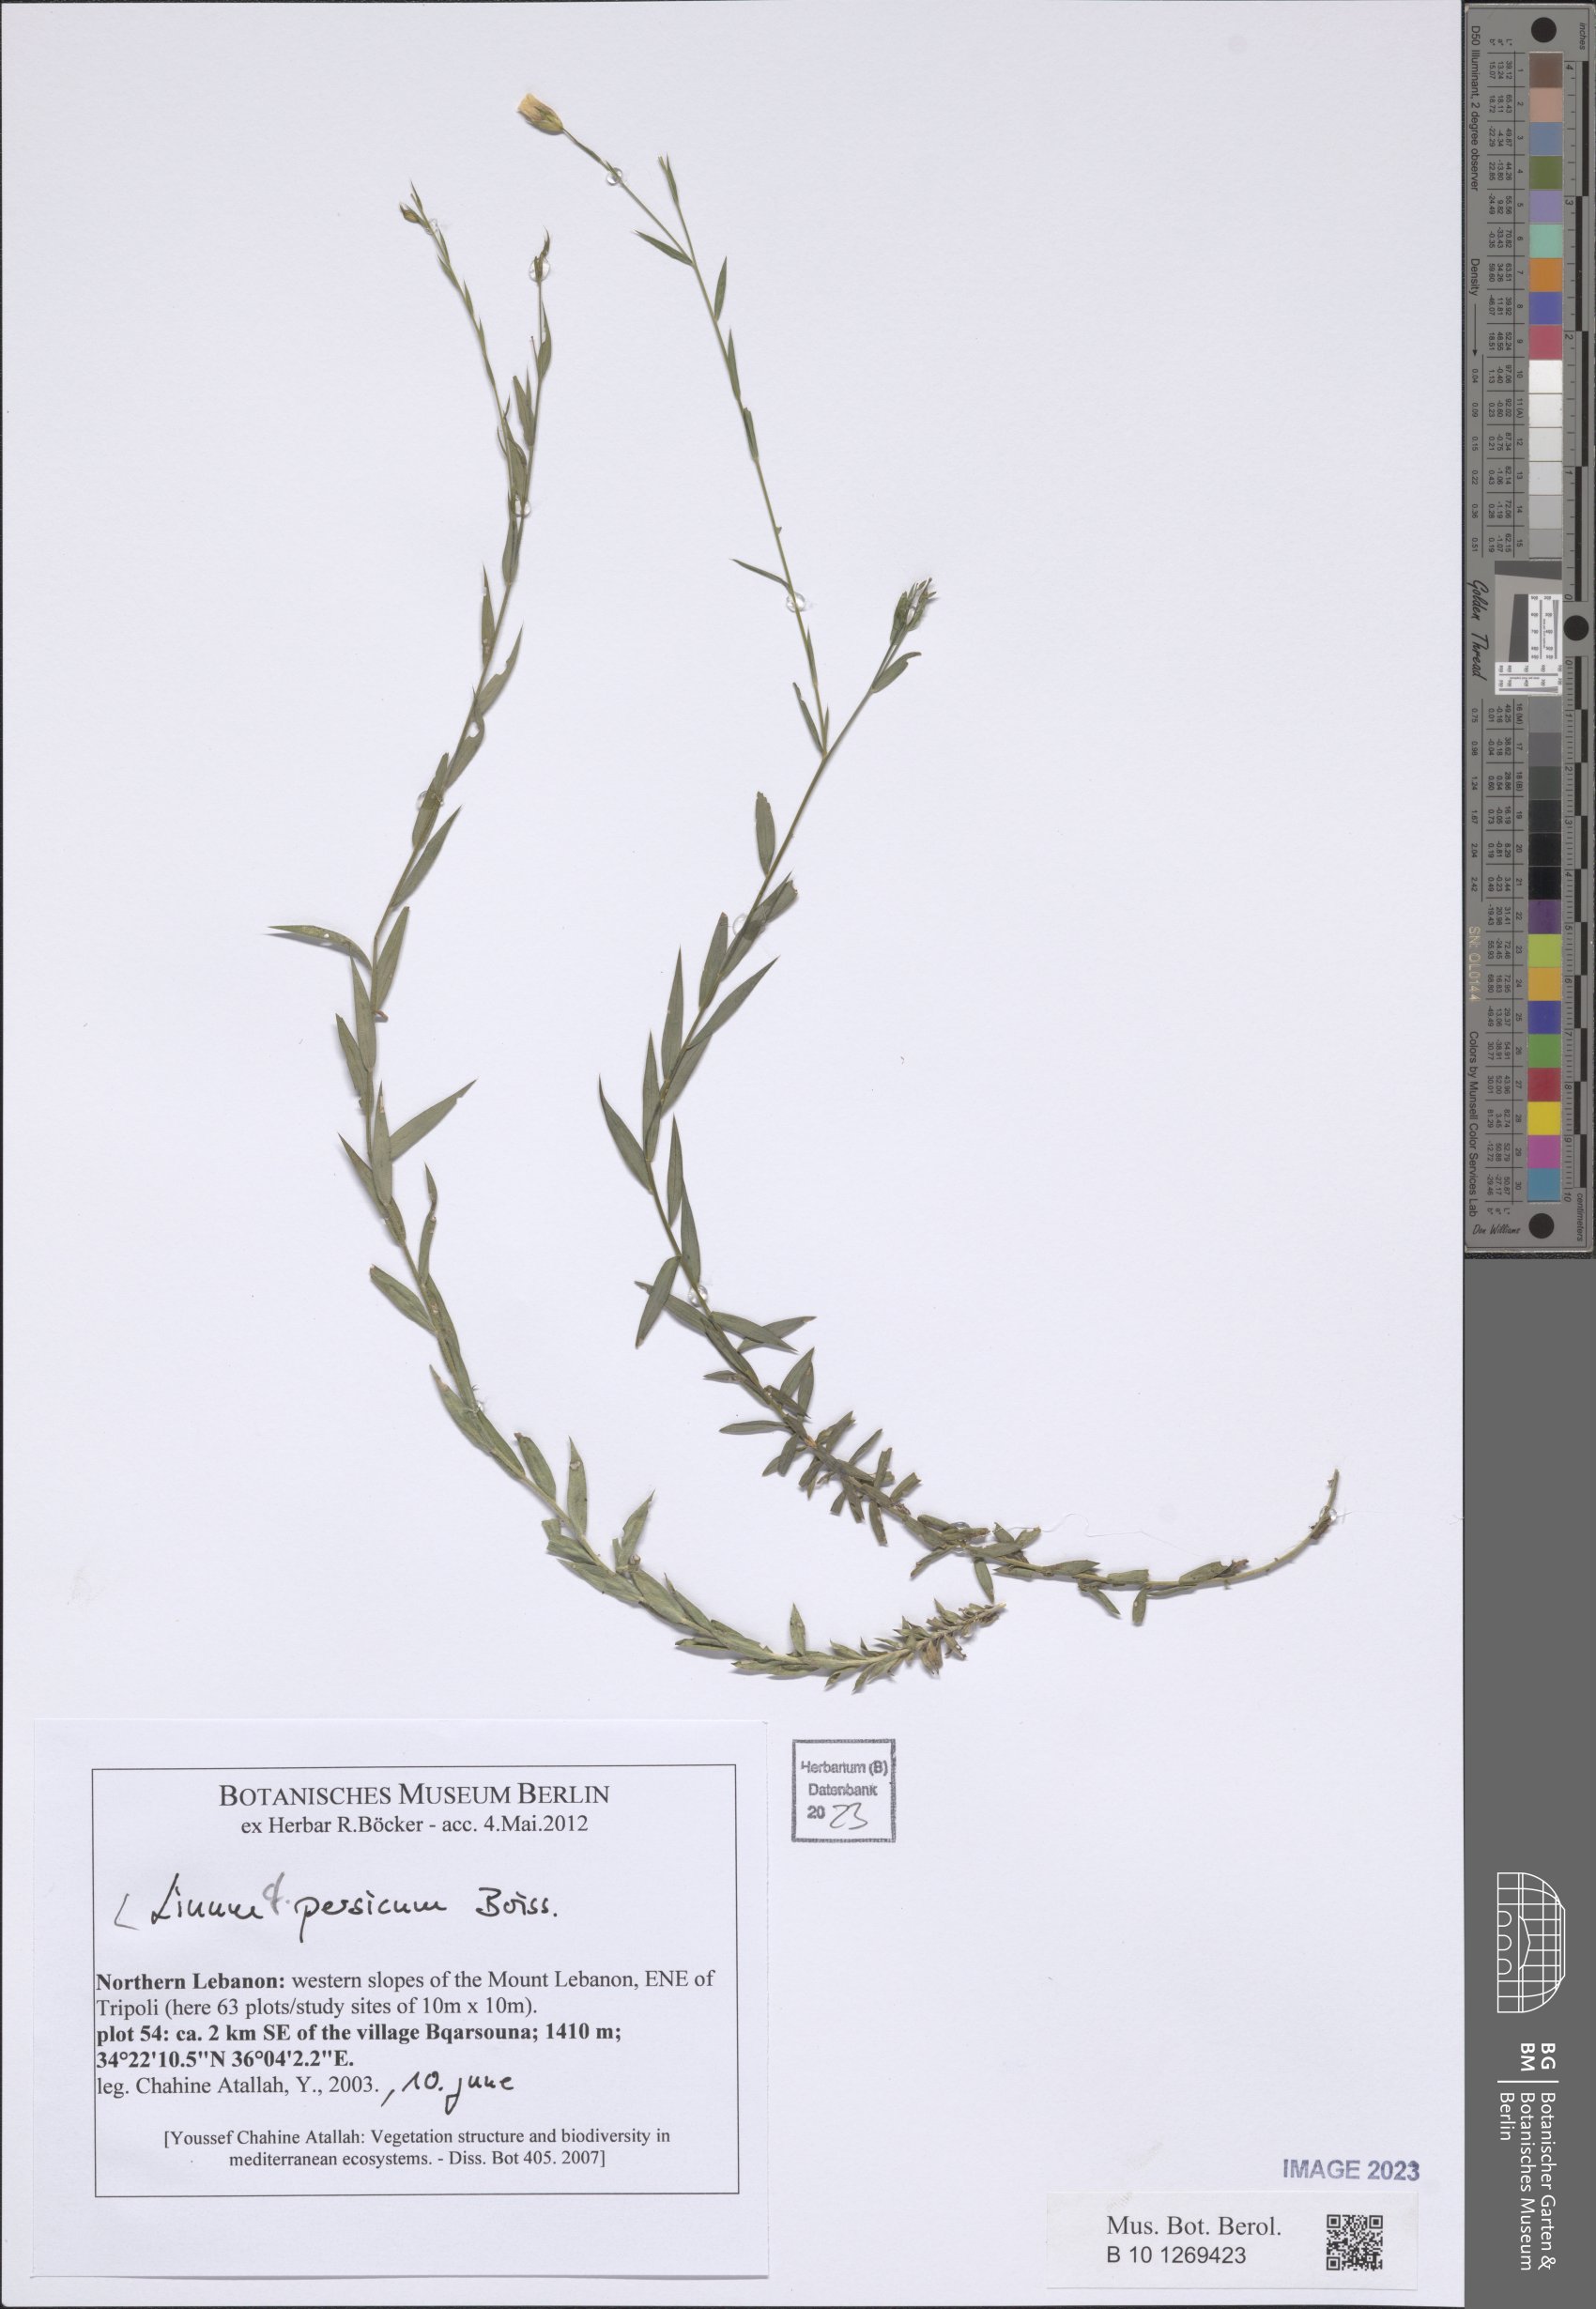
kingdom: Plantae
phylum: Tracheophyta
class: Magnoliopsida
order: Malpighiales
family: Linaceae
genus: Linum
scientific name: Linum persicum
